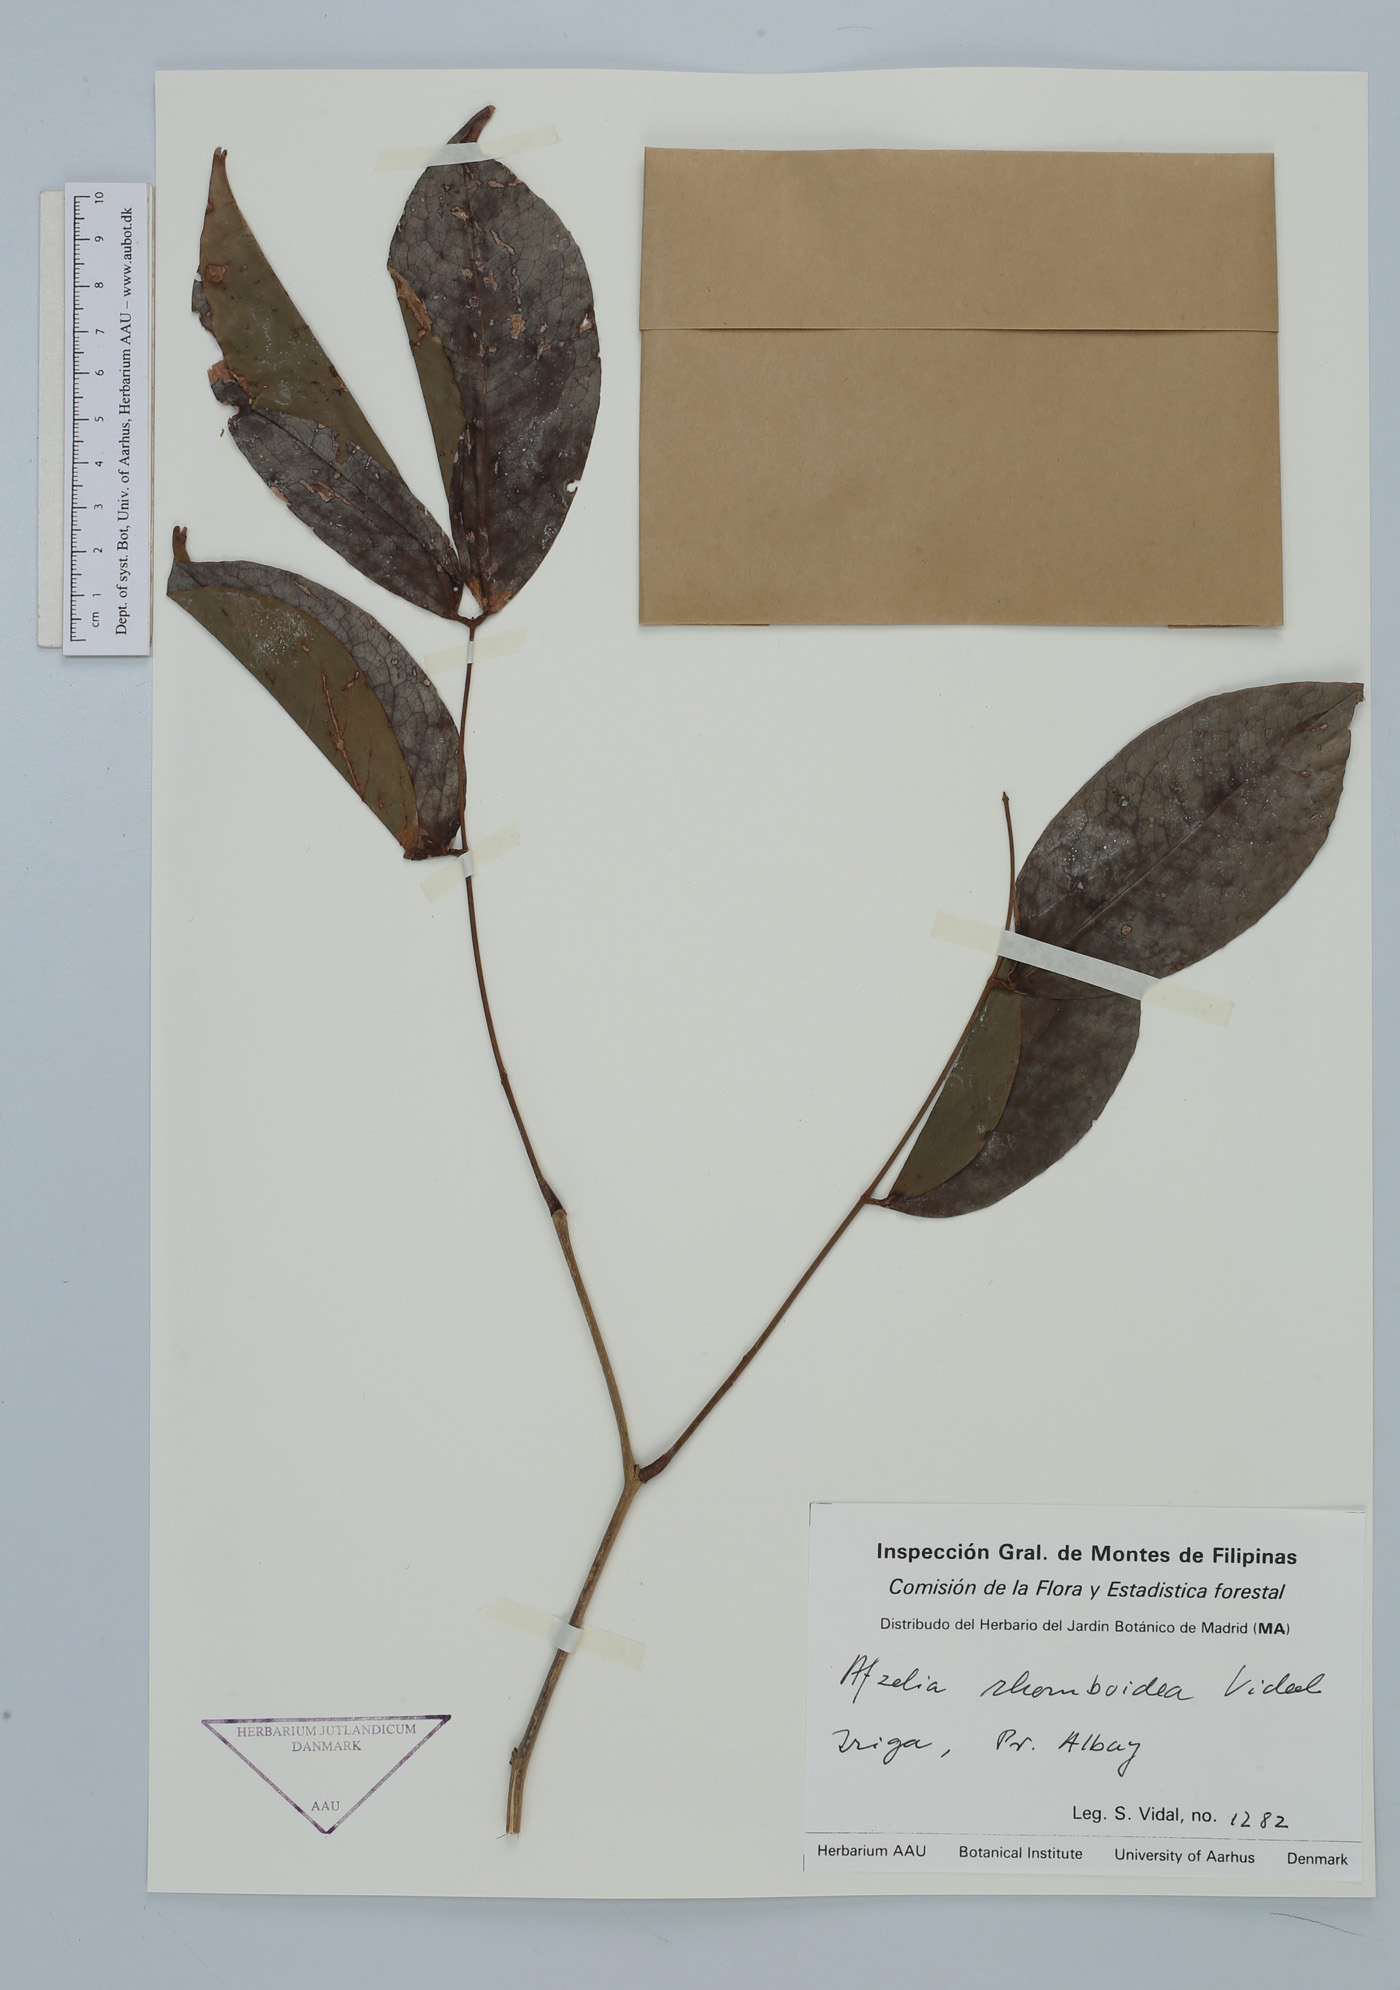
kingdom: Plantae
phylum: Tracheophyta
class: Magnoliopsida
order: Fabales
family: Fabaceae
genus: Afzelia
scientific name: Afzelia rhomboidea
